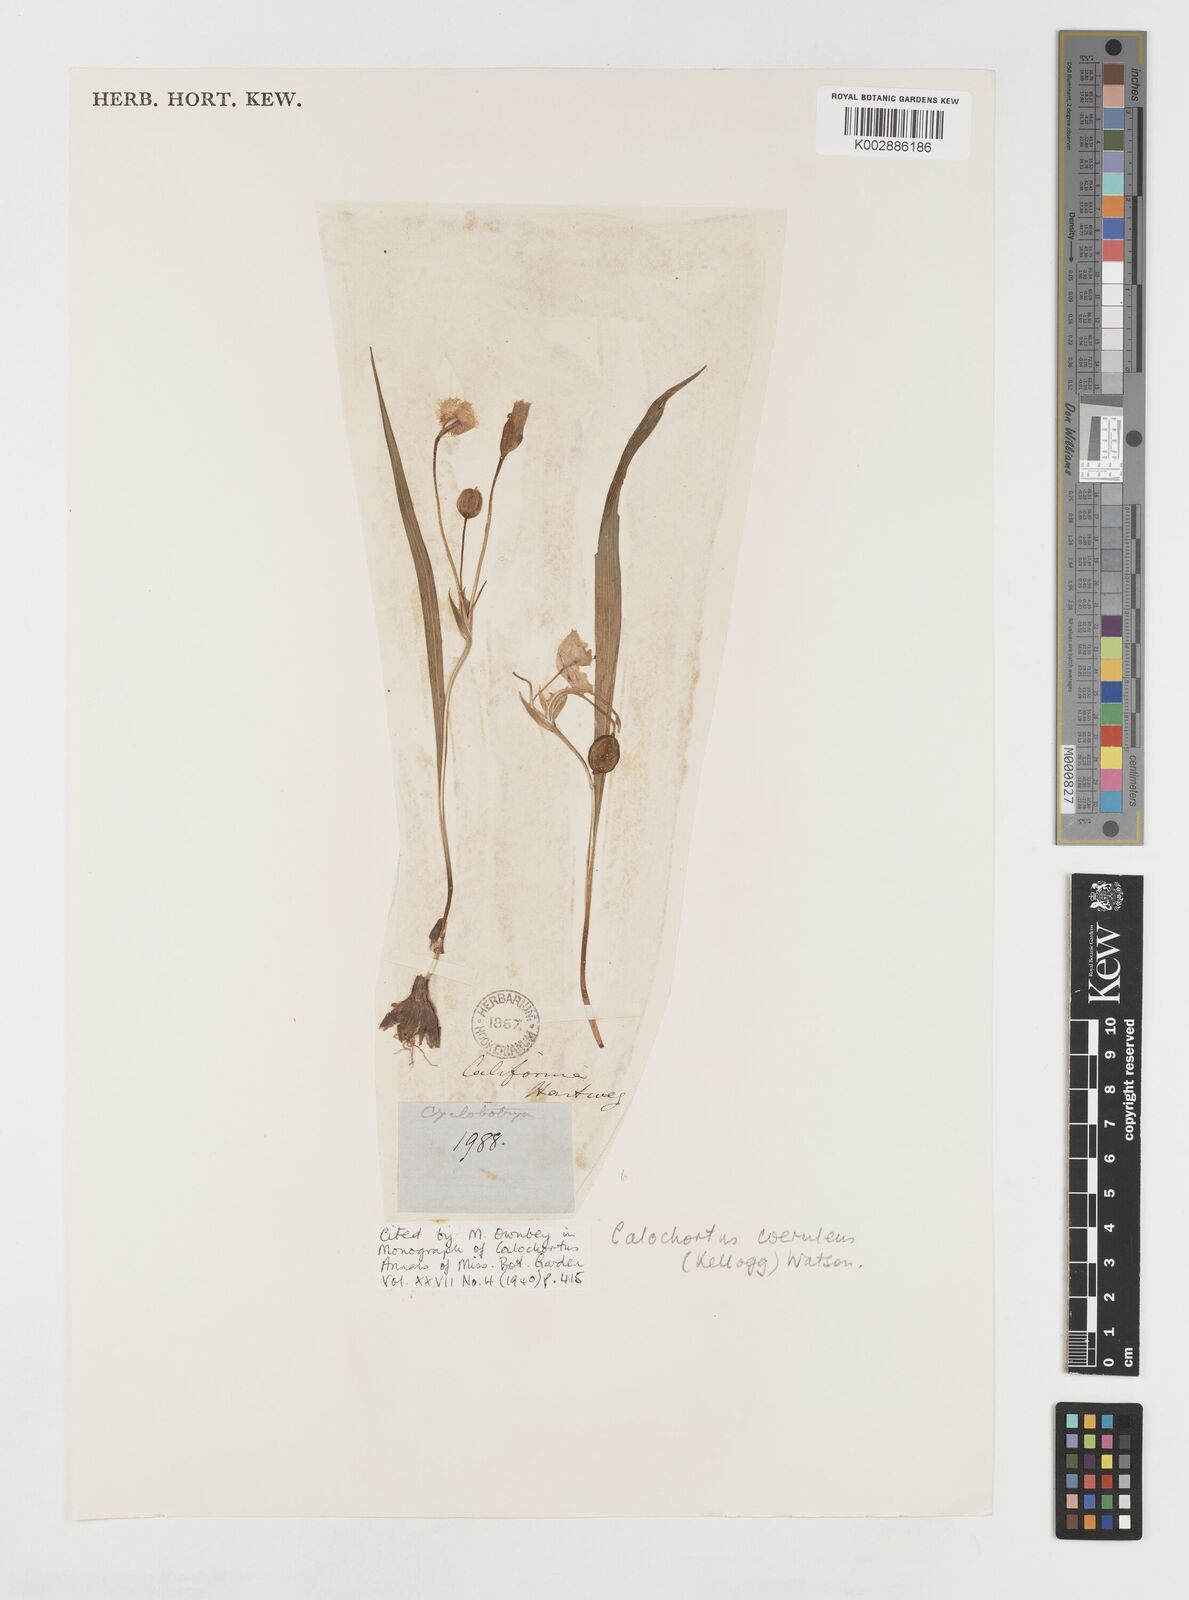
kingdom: Plantae
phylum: Tracheophyta
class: Liliopsida
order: Liliales
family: Liliaceae
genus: Calochortus
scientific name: Calochortus coeruleus
